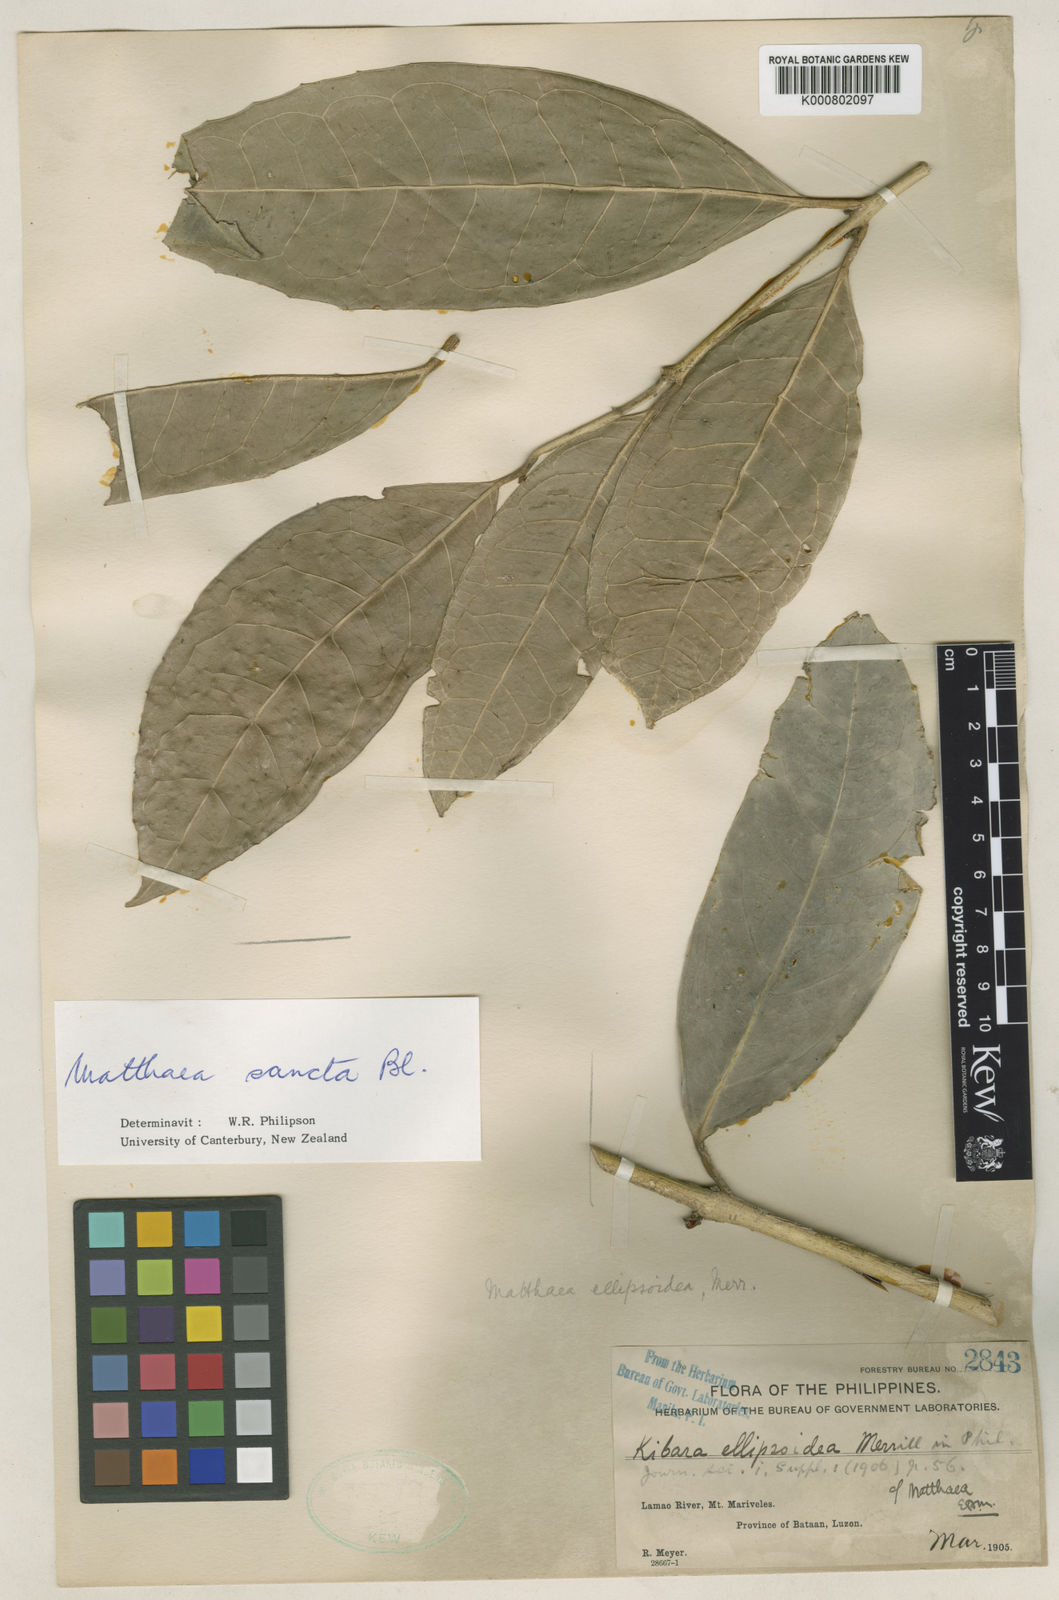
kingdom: Plantae
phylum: Tracheophyta
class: Magnoliopsida
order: Laurales
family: Monimiaceae
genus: Matthaea
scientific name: Matthaea sancta
